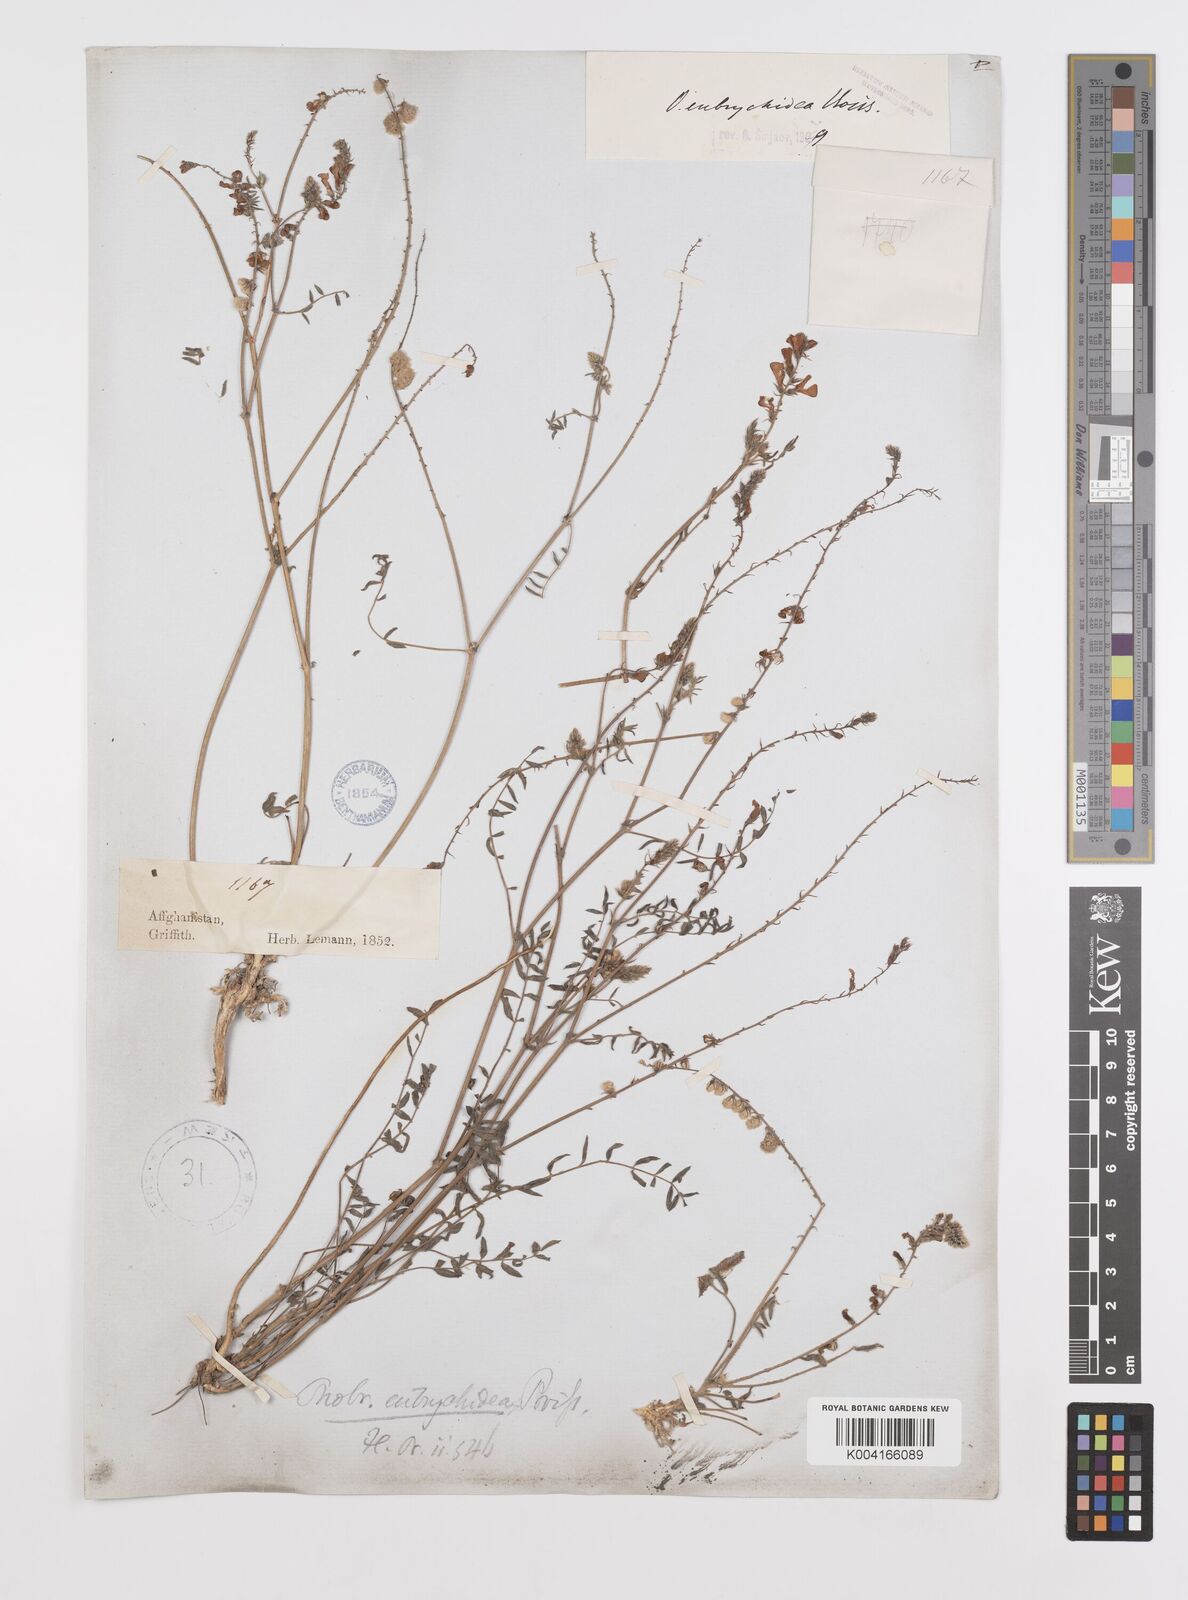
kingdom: Plantae
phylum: Tracheophyta
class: Magnoliopsida
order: Fabales
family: Fabaceae
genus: Onobrychis
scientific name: Onobrychis eubrychidea
